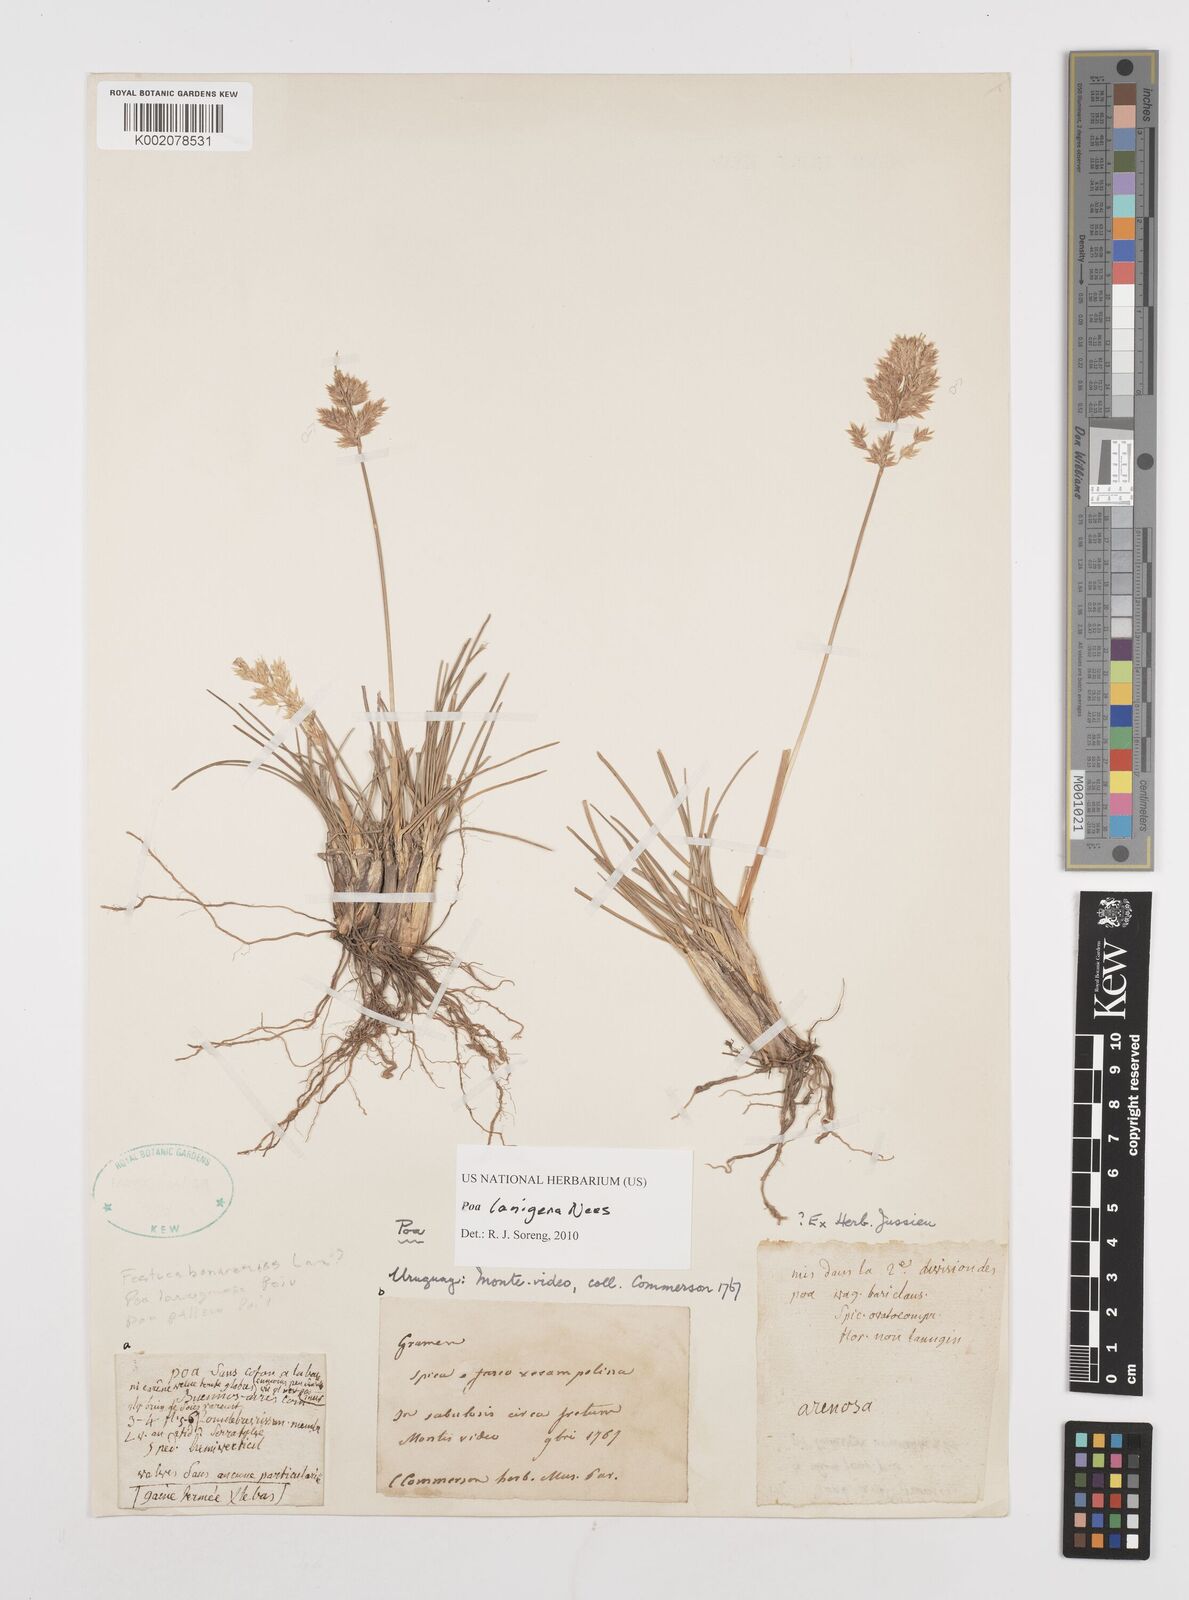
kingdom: Plantae
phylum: Tracheophyta
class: Liliopsida
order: Poales
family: Poaceae
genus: Poa
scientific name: Poa lanigera
